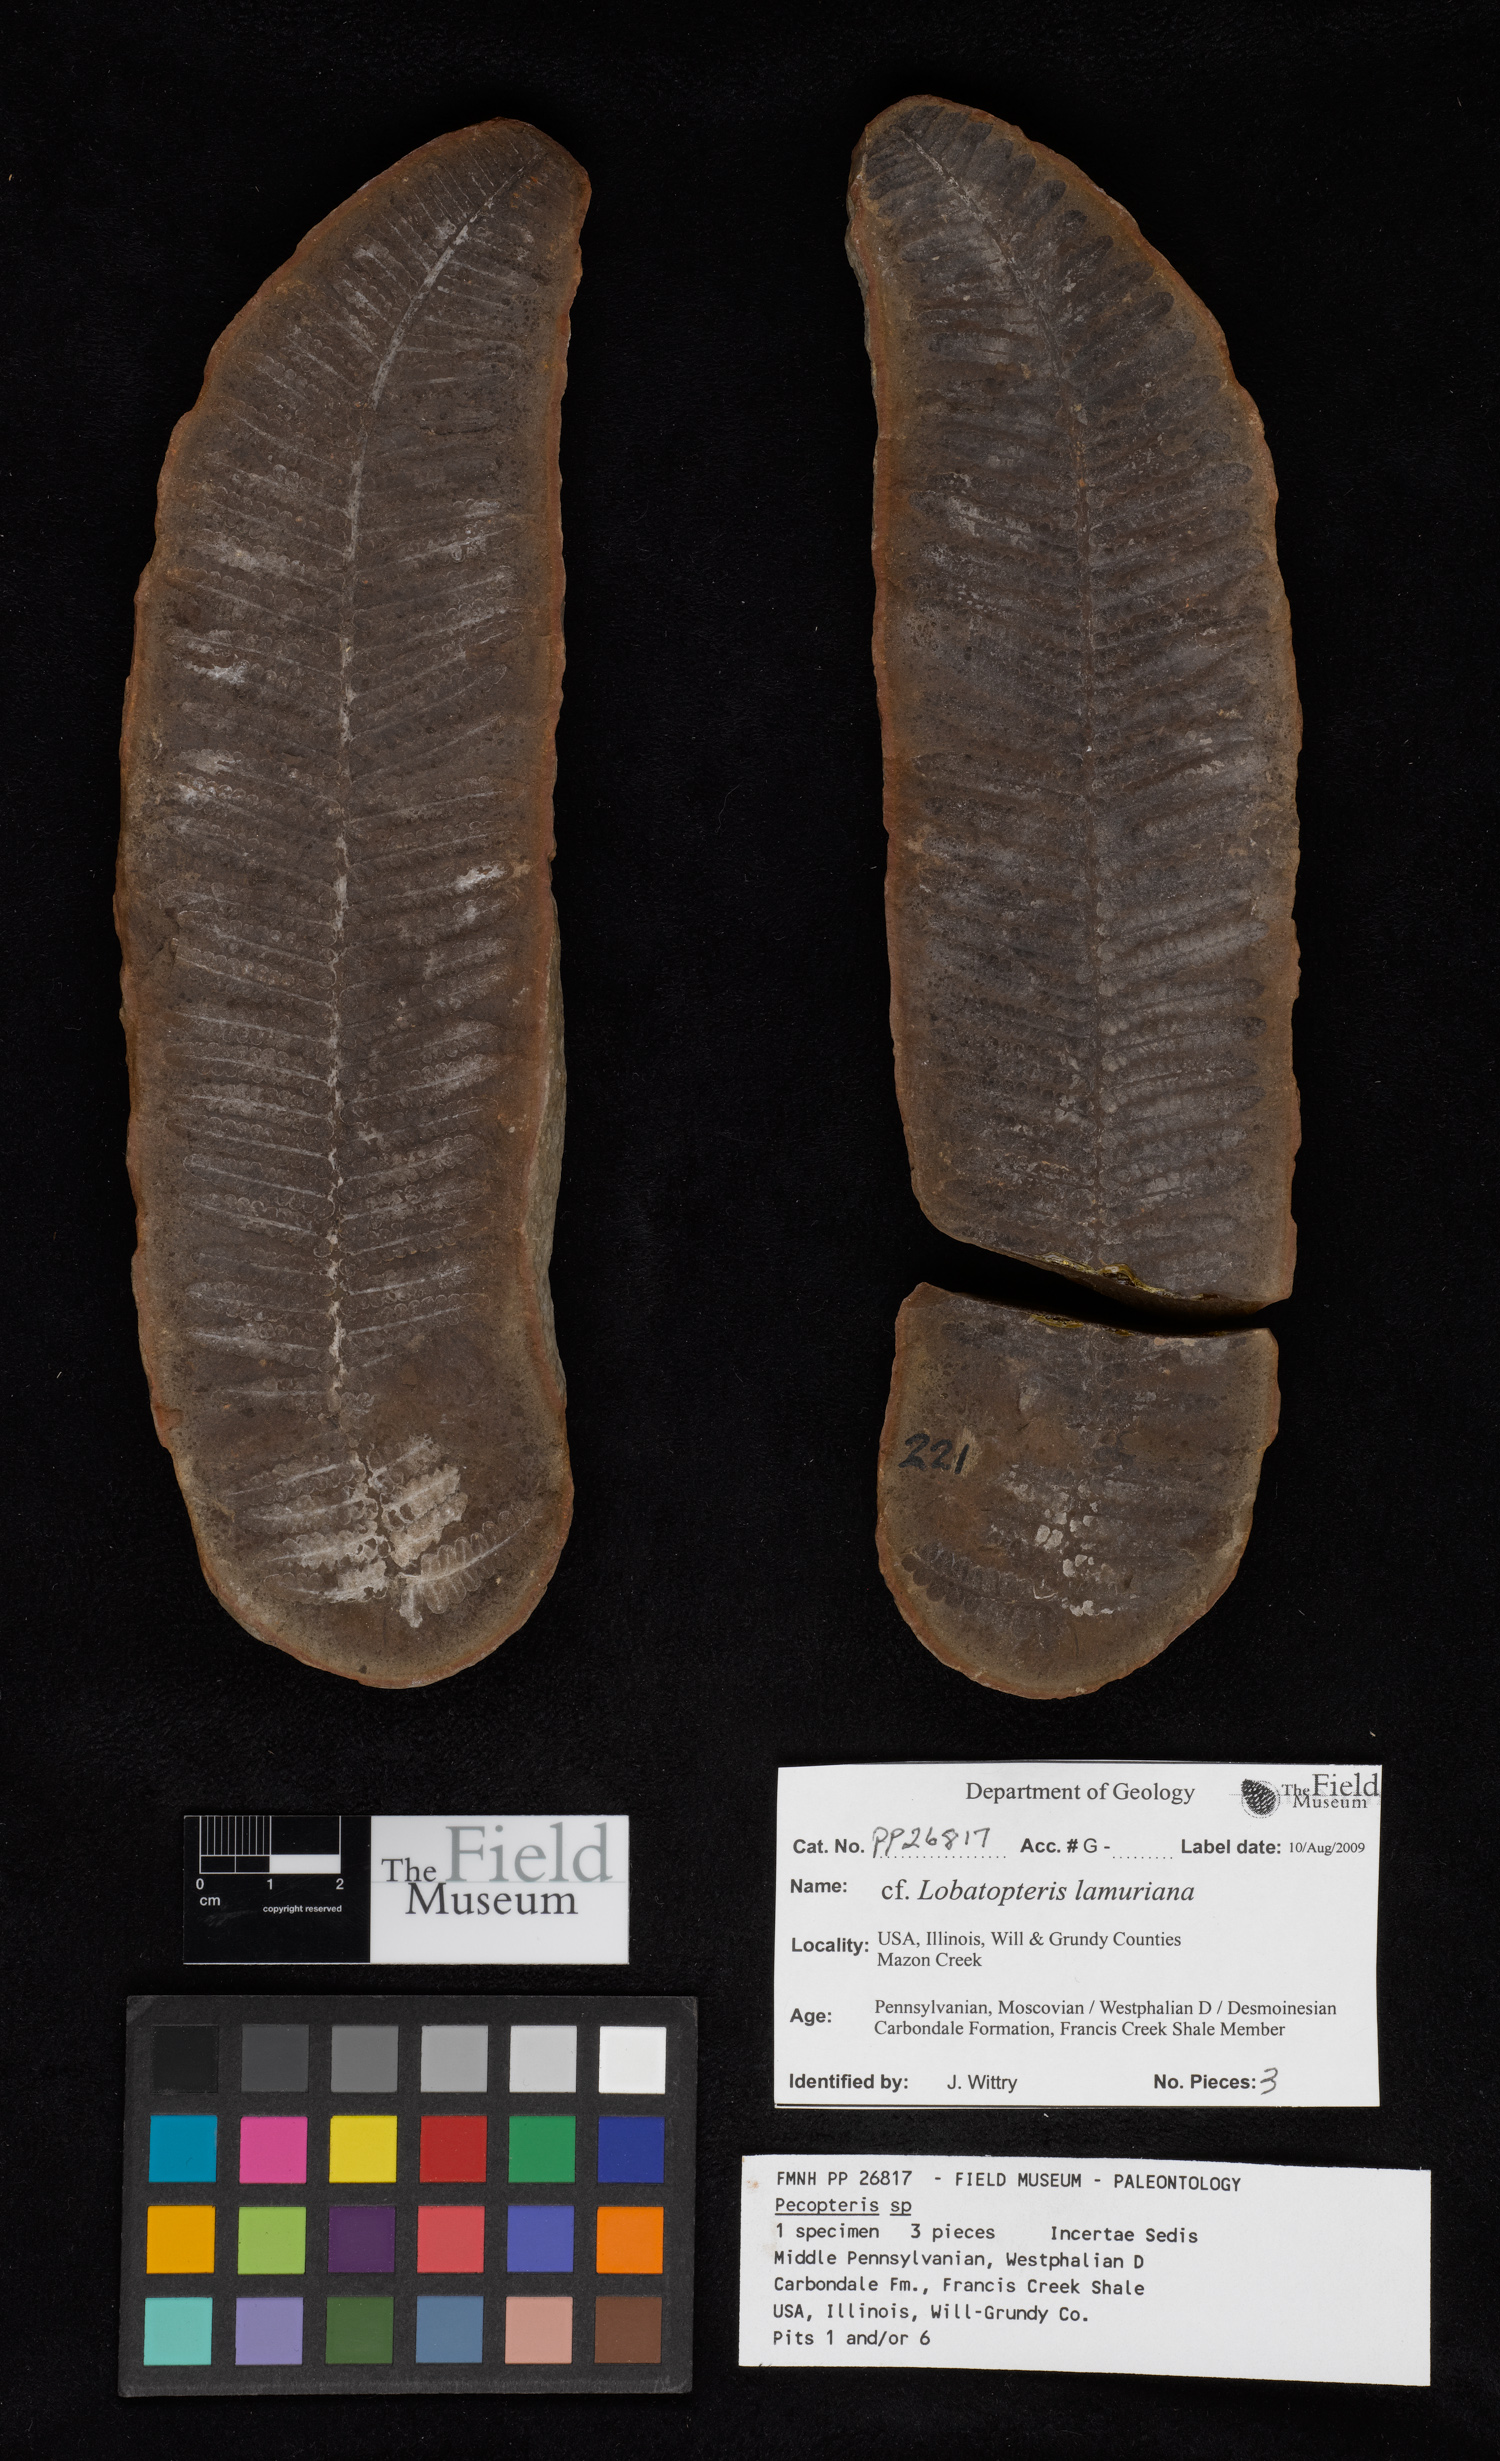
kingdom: Plantae
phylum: Tracheophyta
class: Polypodiopsida
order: Marattiales
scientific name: Marattiales
